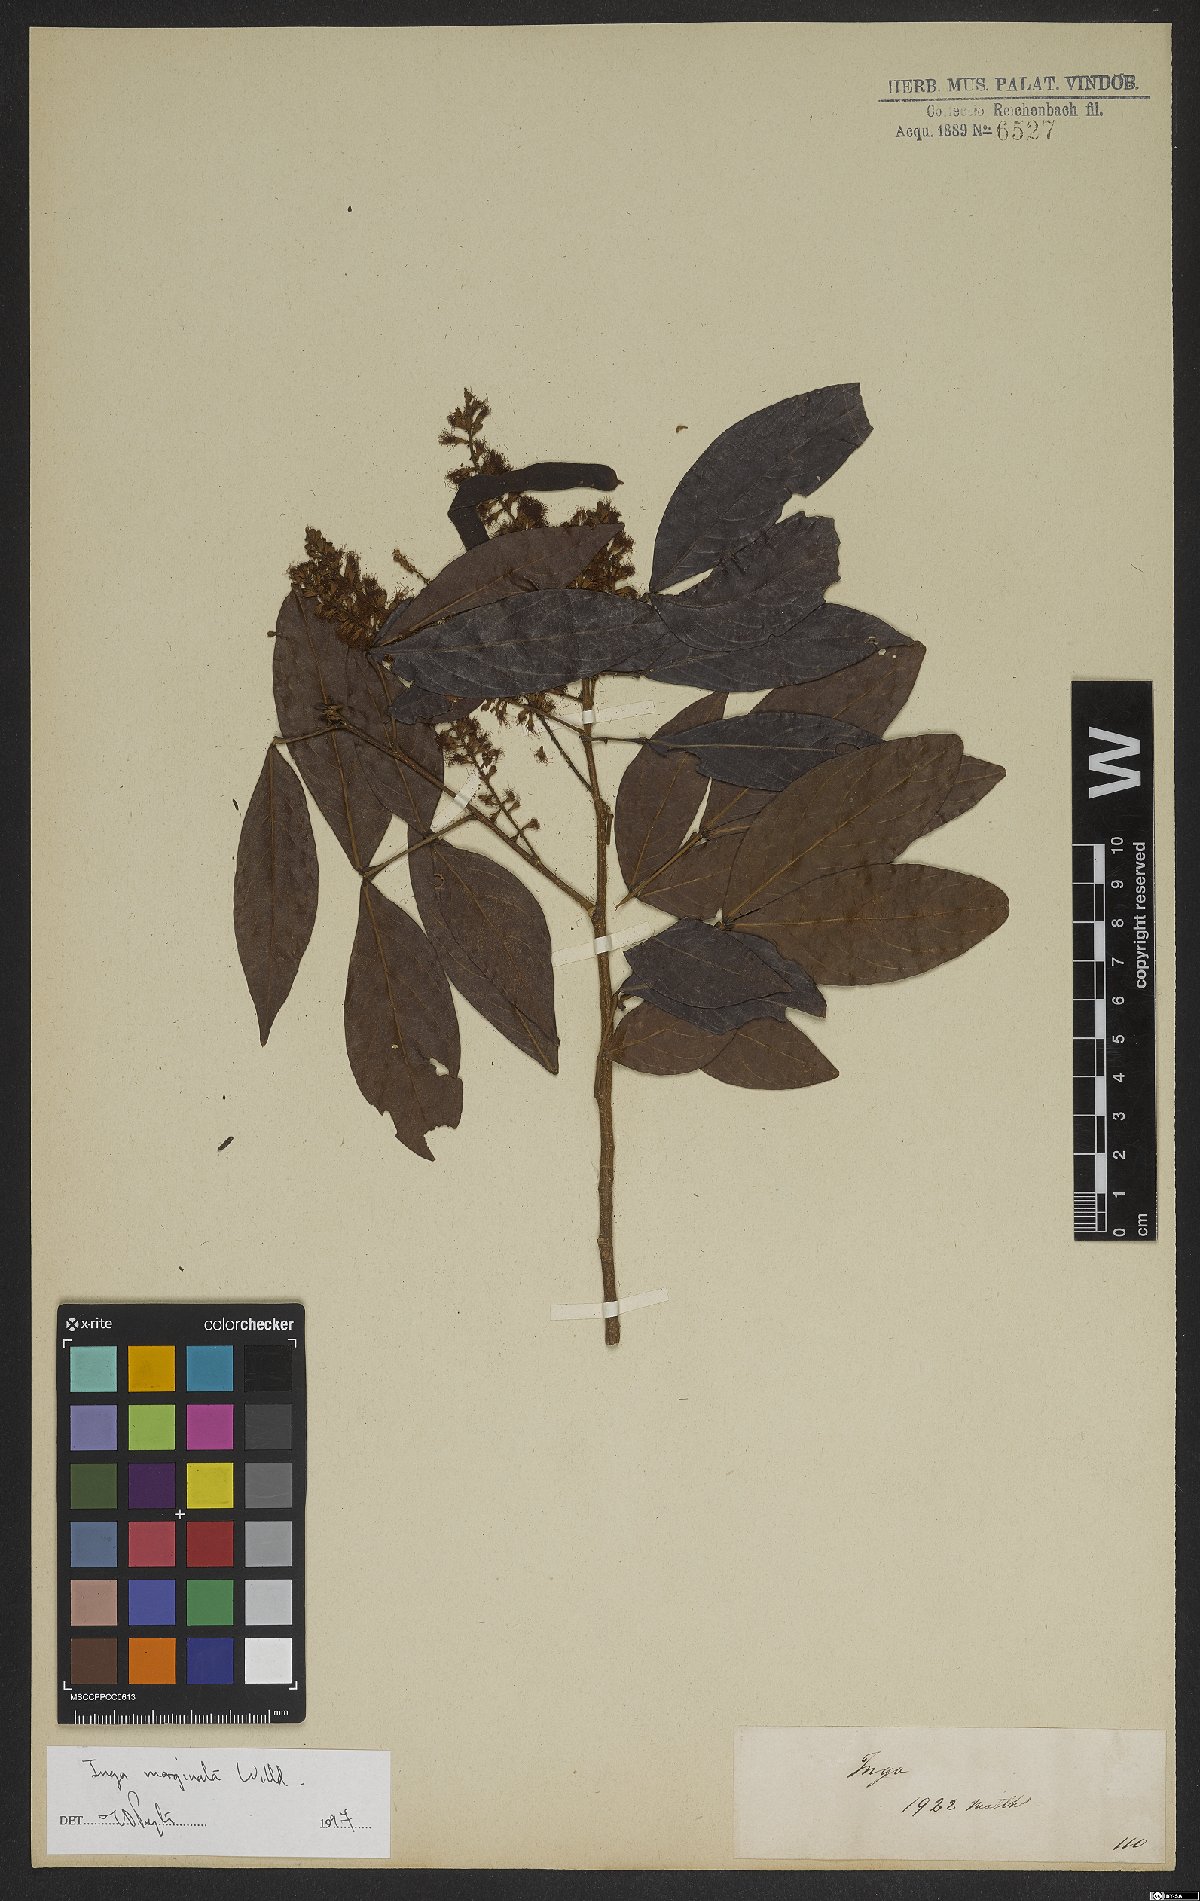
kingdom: Plantae
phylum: Tracheophyta
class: Magnoliopsida
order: Fabales
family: Fabaceae
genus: Inga
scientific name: Inga marginata
